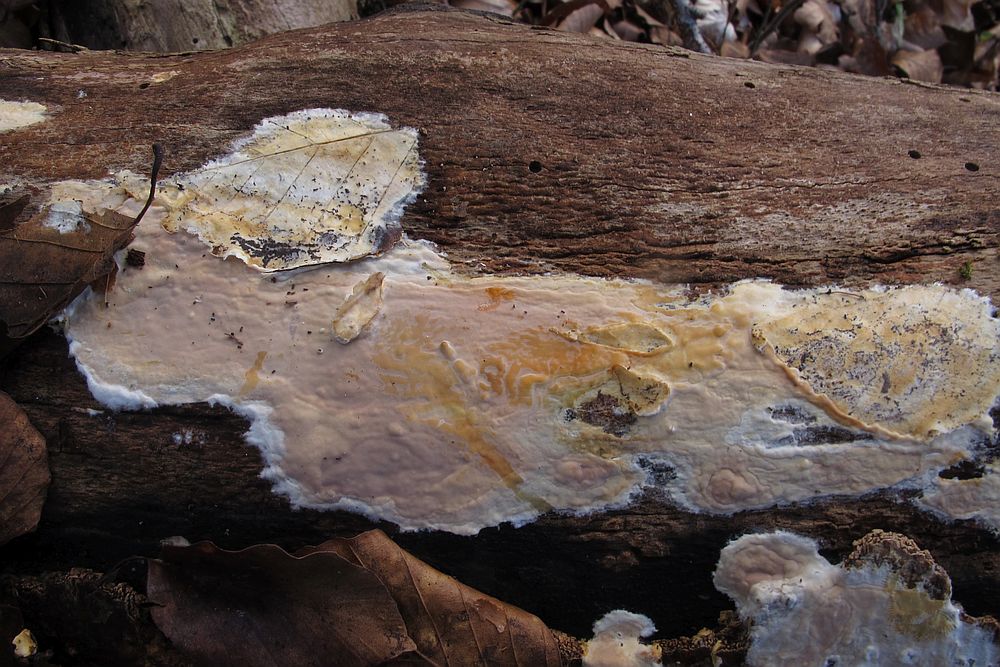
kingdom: Fungi
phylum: Basidiomycota
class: Agaricomycetes
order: Russulales
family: Peniophoraceae
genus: Scytinostroma
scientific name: Scytinostroma hemidichophyticum
